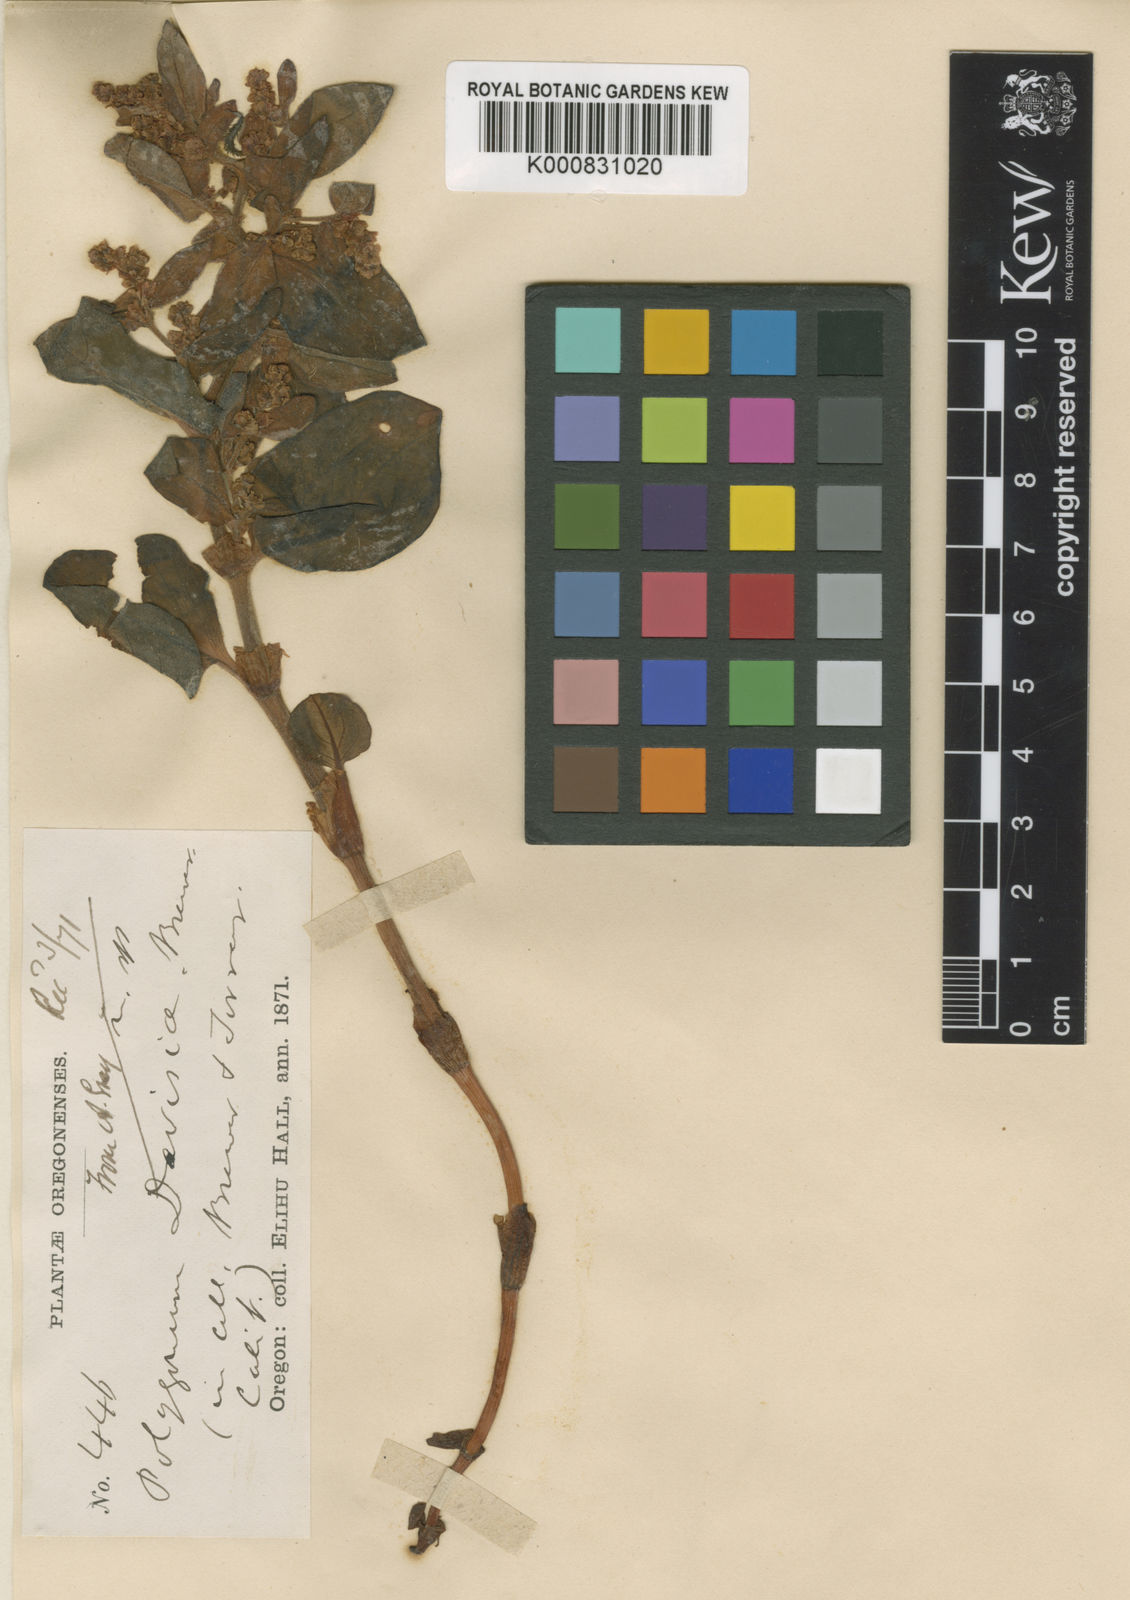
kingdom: Plantae
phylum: Tracheophyta
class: Magnoliopsida
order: Caryophyllales
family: Polygonaceae
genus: Koenigia
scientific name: Koenigia davisiae
